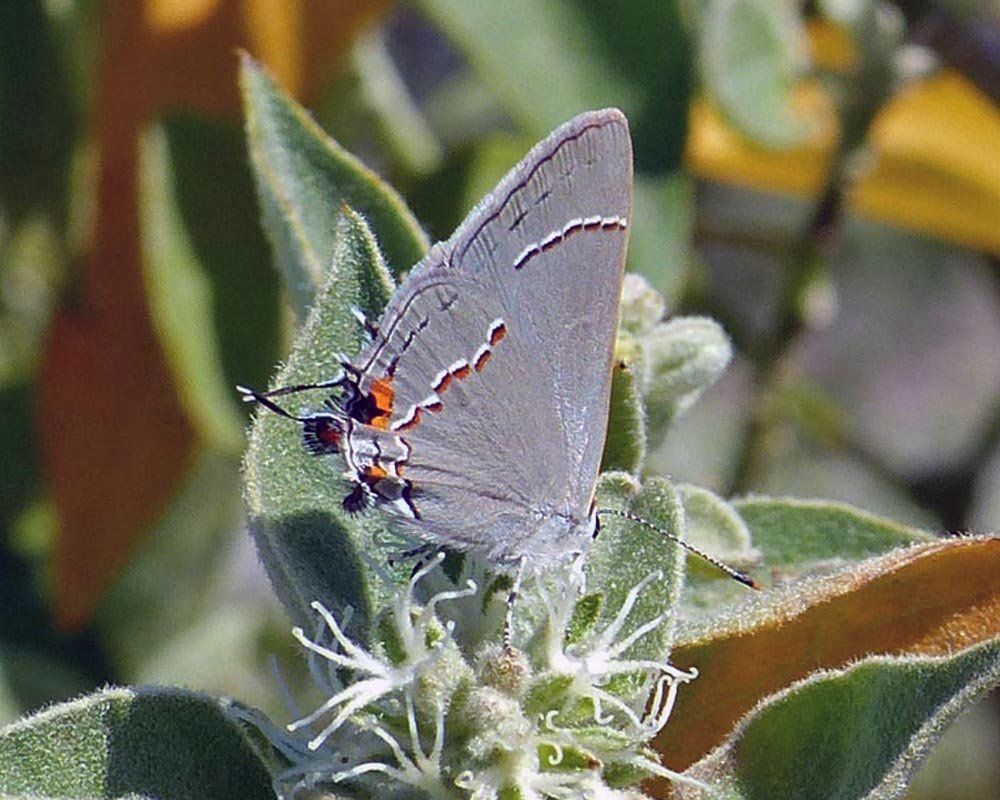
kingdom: Animalia
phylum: Arthropoda
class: Insecta
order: Lepidoptera
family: Lycaenidae
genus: Strymon
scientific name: Strymon melinus
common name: Gray Hairstreak
